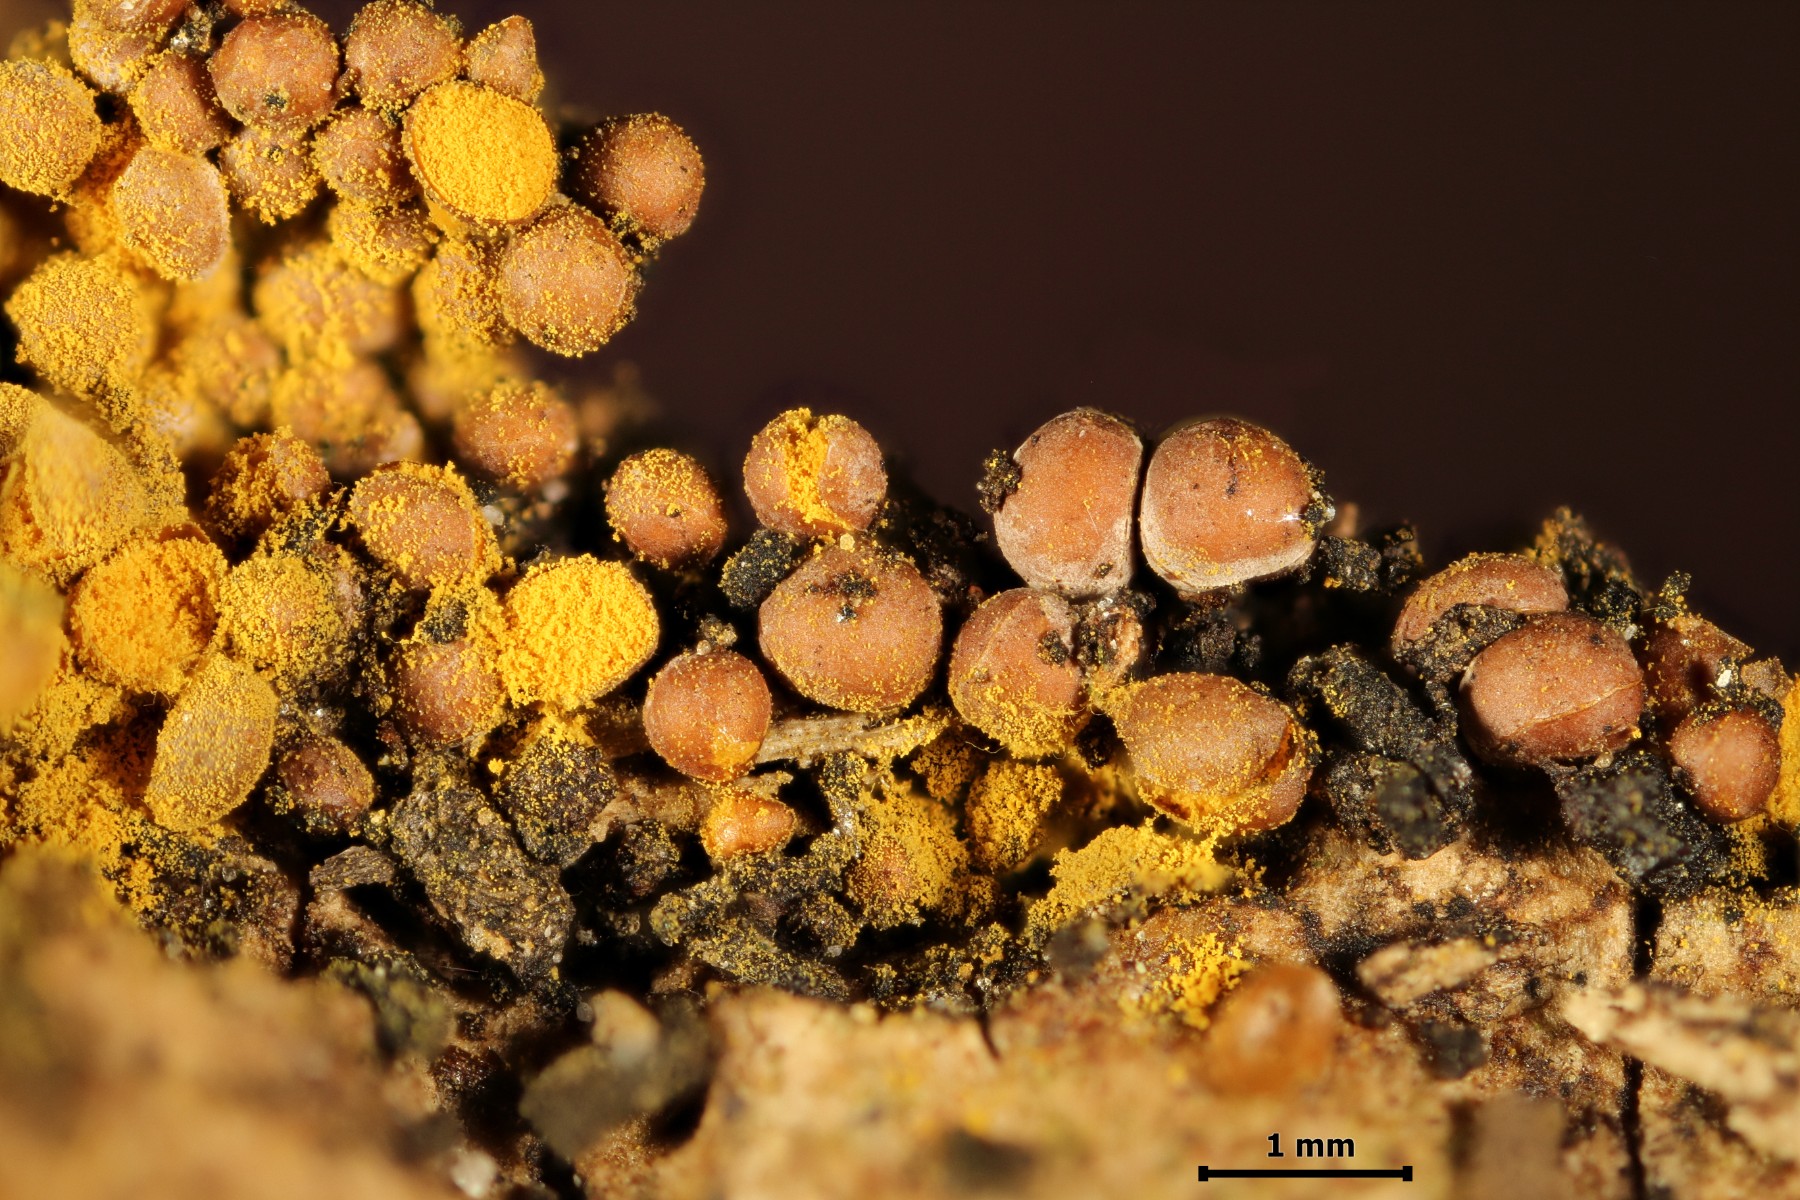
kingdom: Protozoa
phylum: Mycetozoa
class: Myxomycetes
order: Trichiales
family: Trichiaceae
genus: Perichaena
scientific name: Perichaena corticalis
